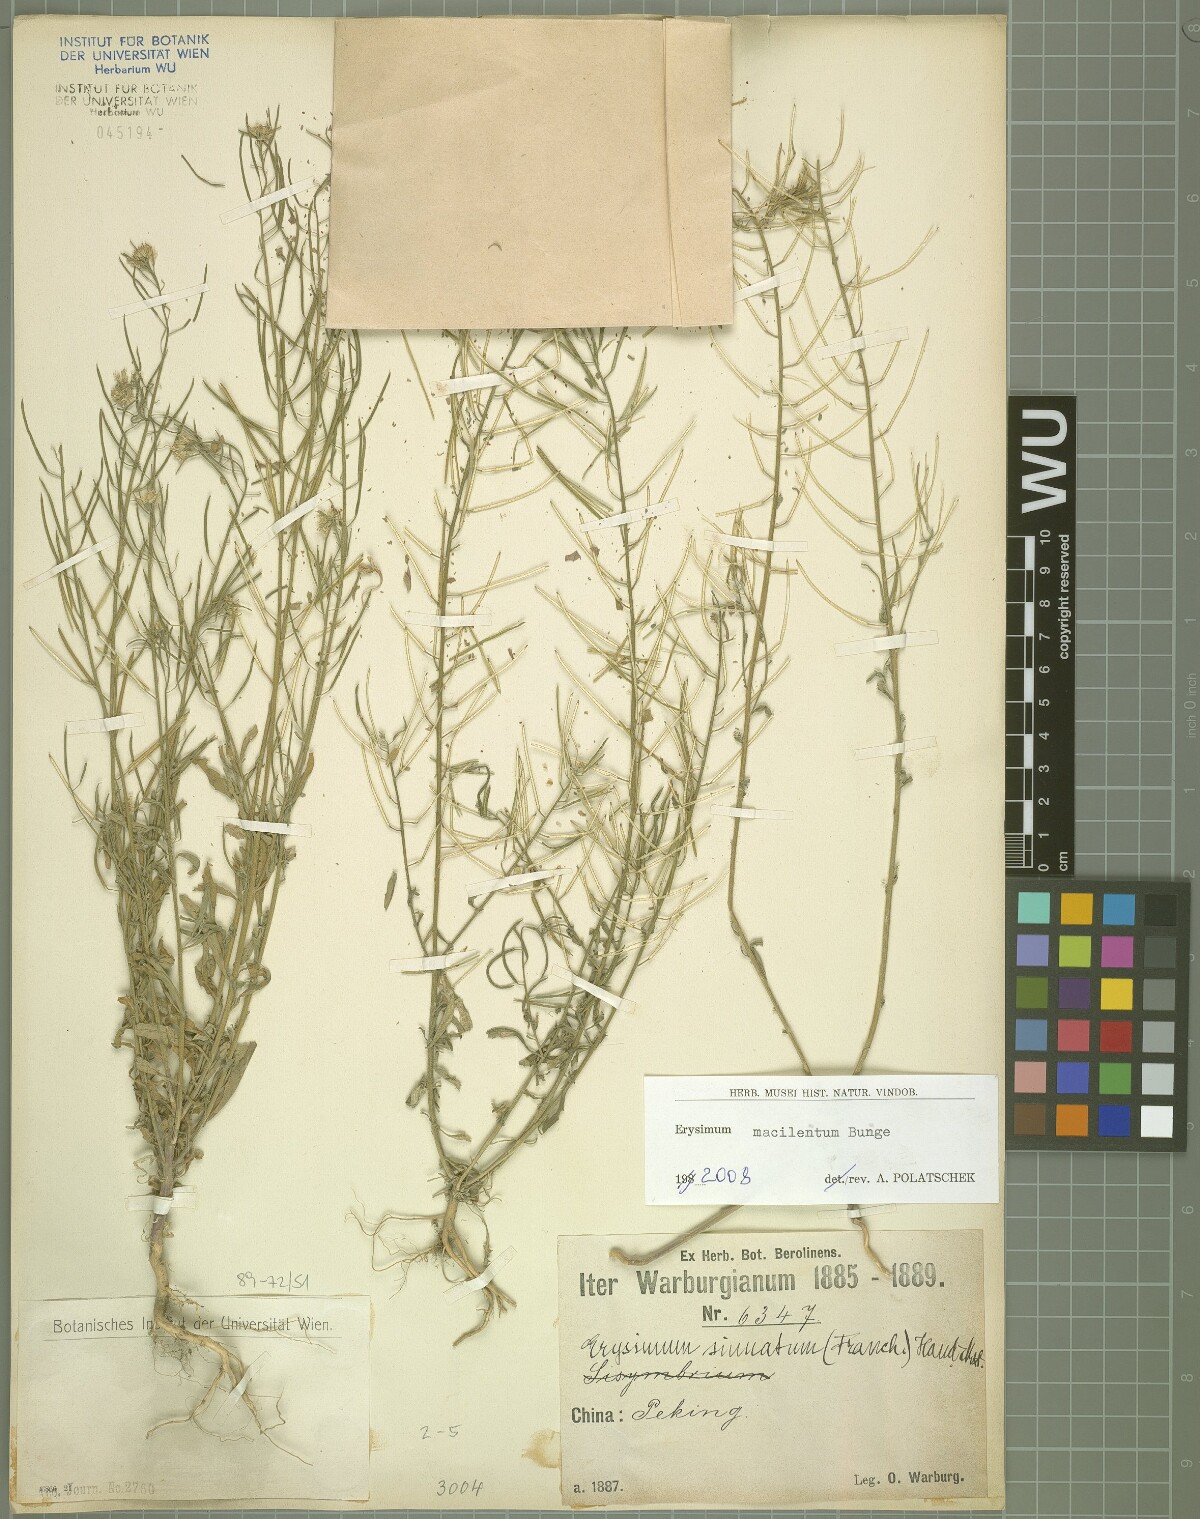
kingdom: Plantae
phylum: Tracheophyta
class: Magnoliopsida
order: Brassicales
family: Brassicaceae
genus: Erysimum
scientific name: Erysimum macilentum
